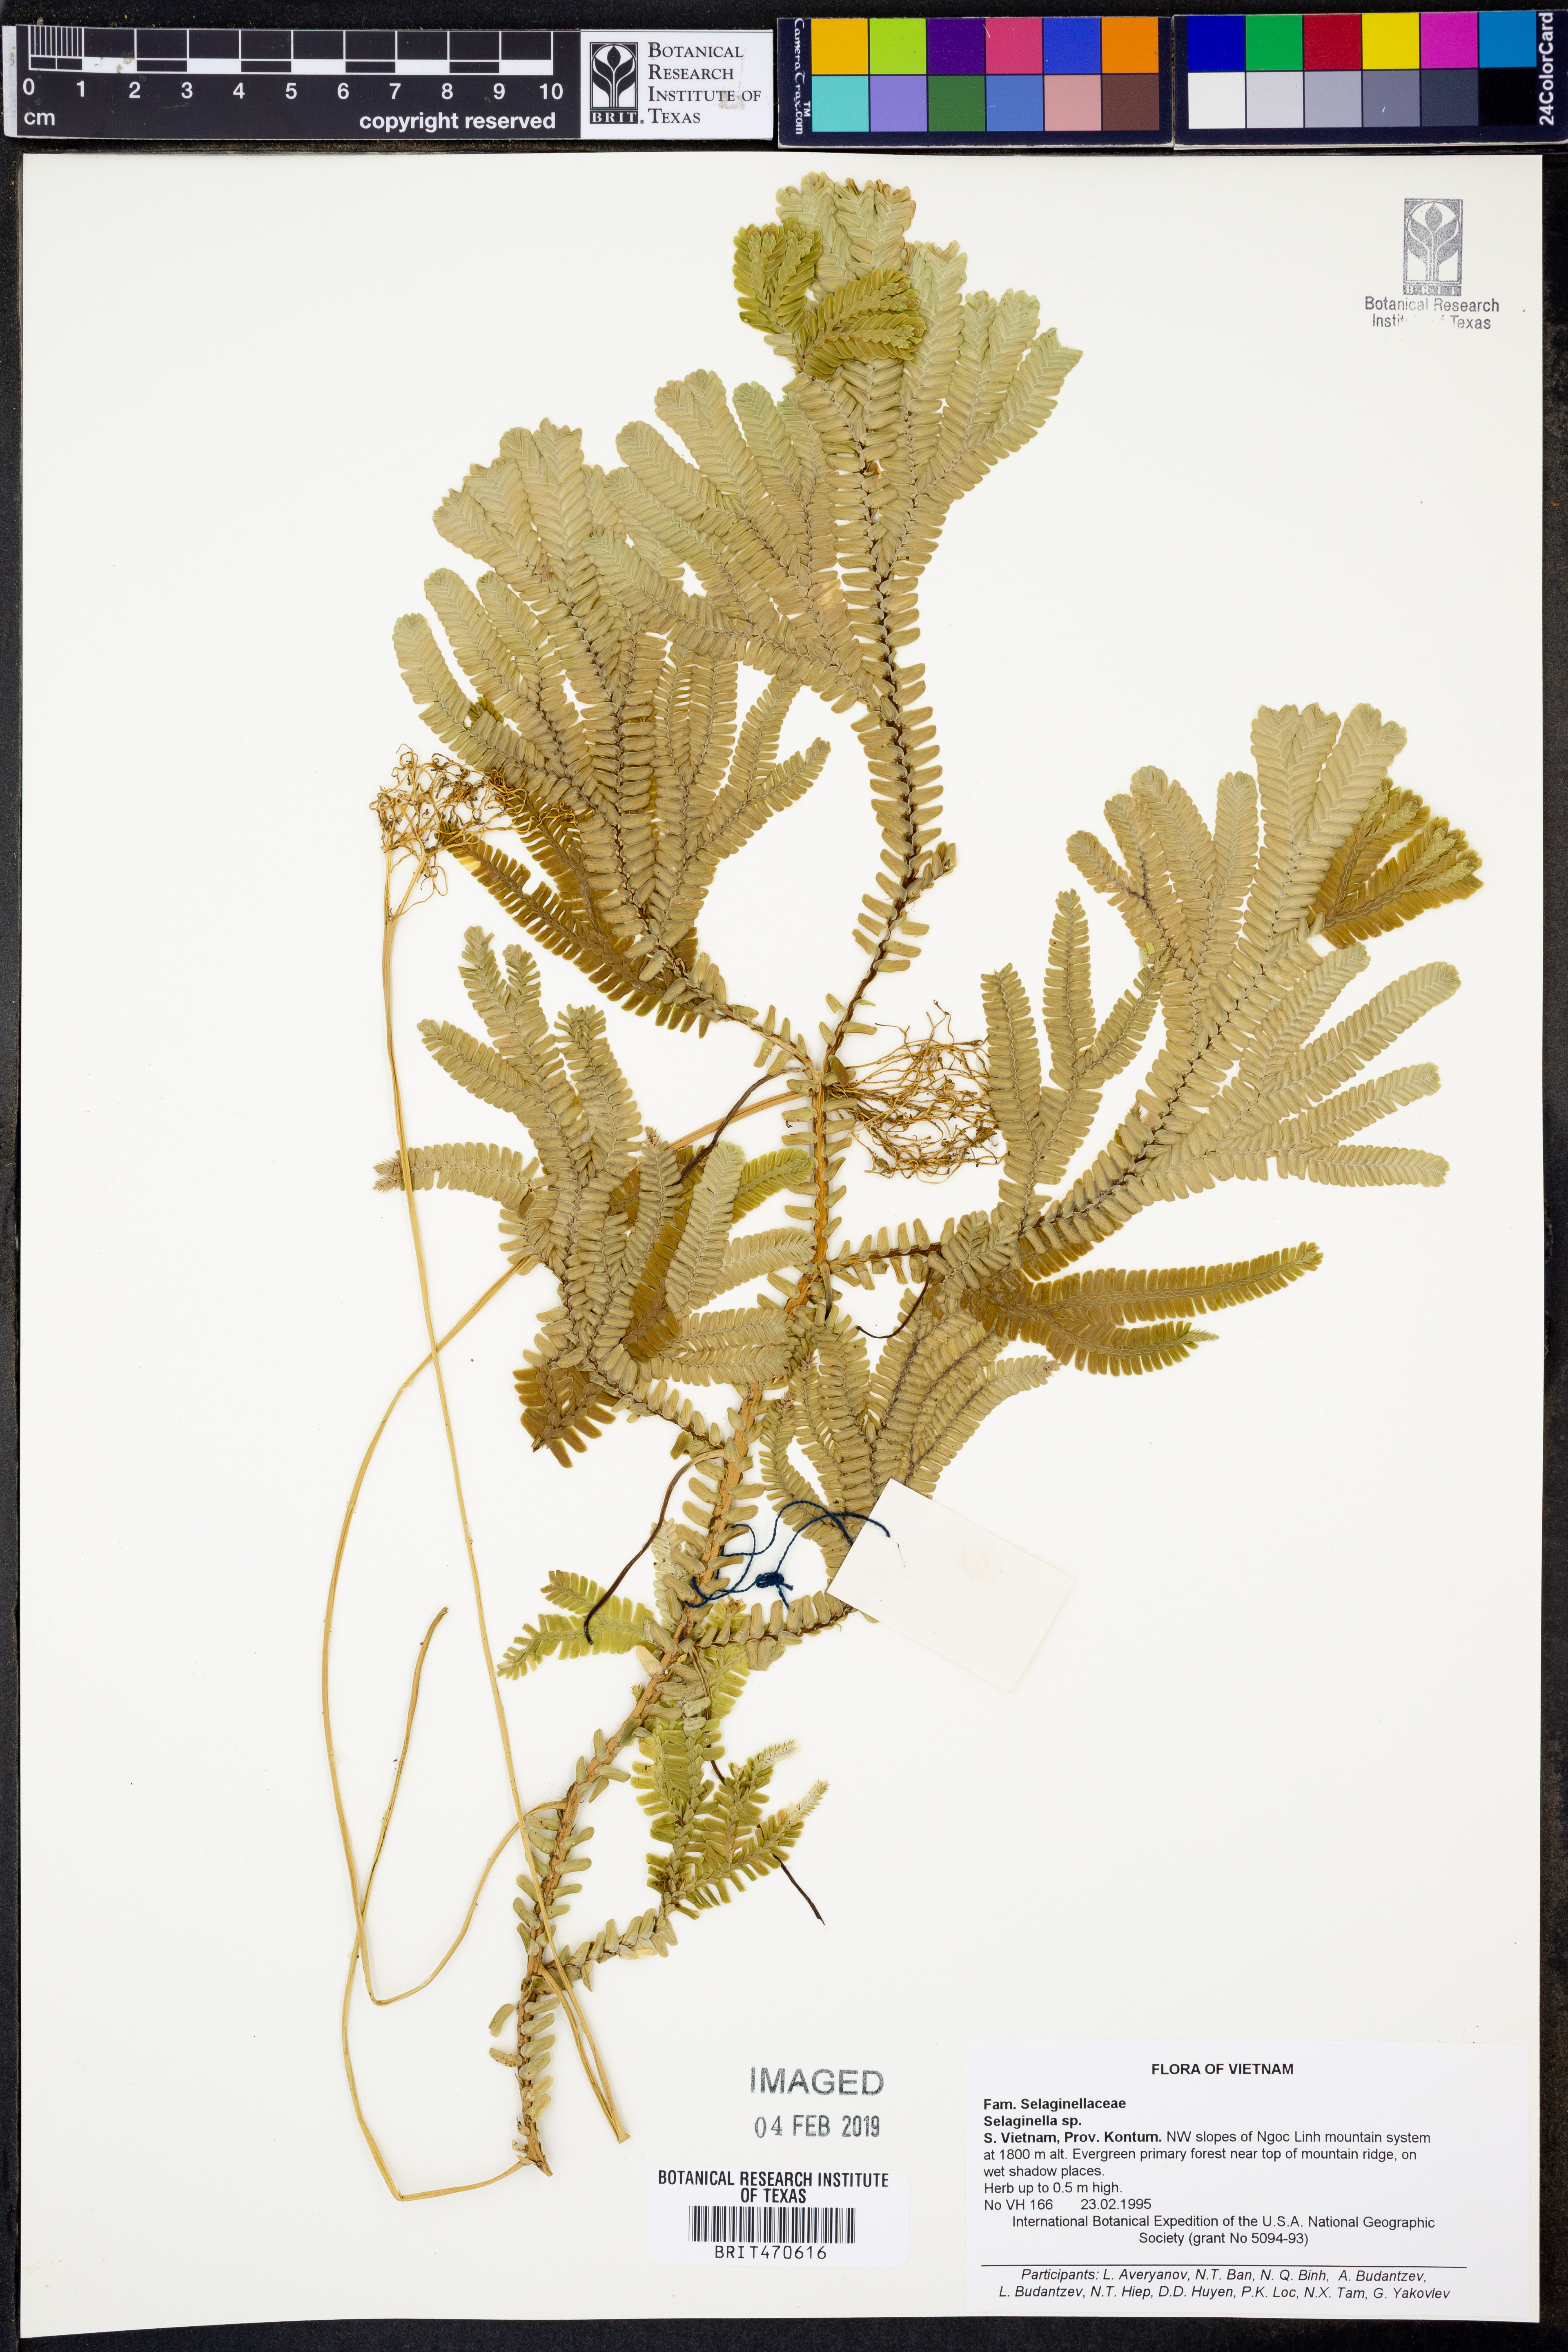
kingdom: Plantae
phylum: Tracheophyta
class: Lycopodiopsida
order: Selaginellales
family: Selaginellaceae
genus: Selaginella
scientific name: Selaginella
